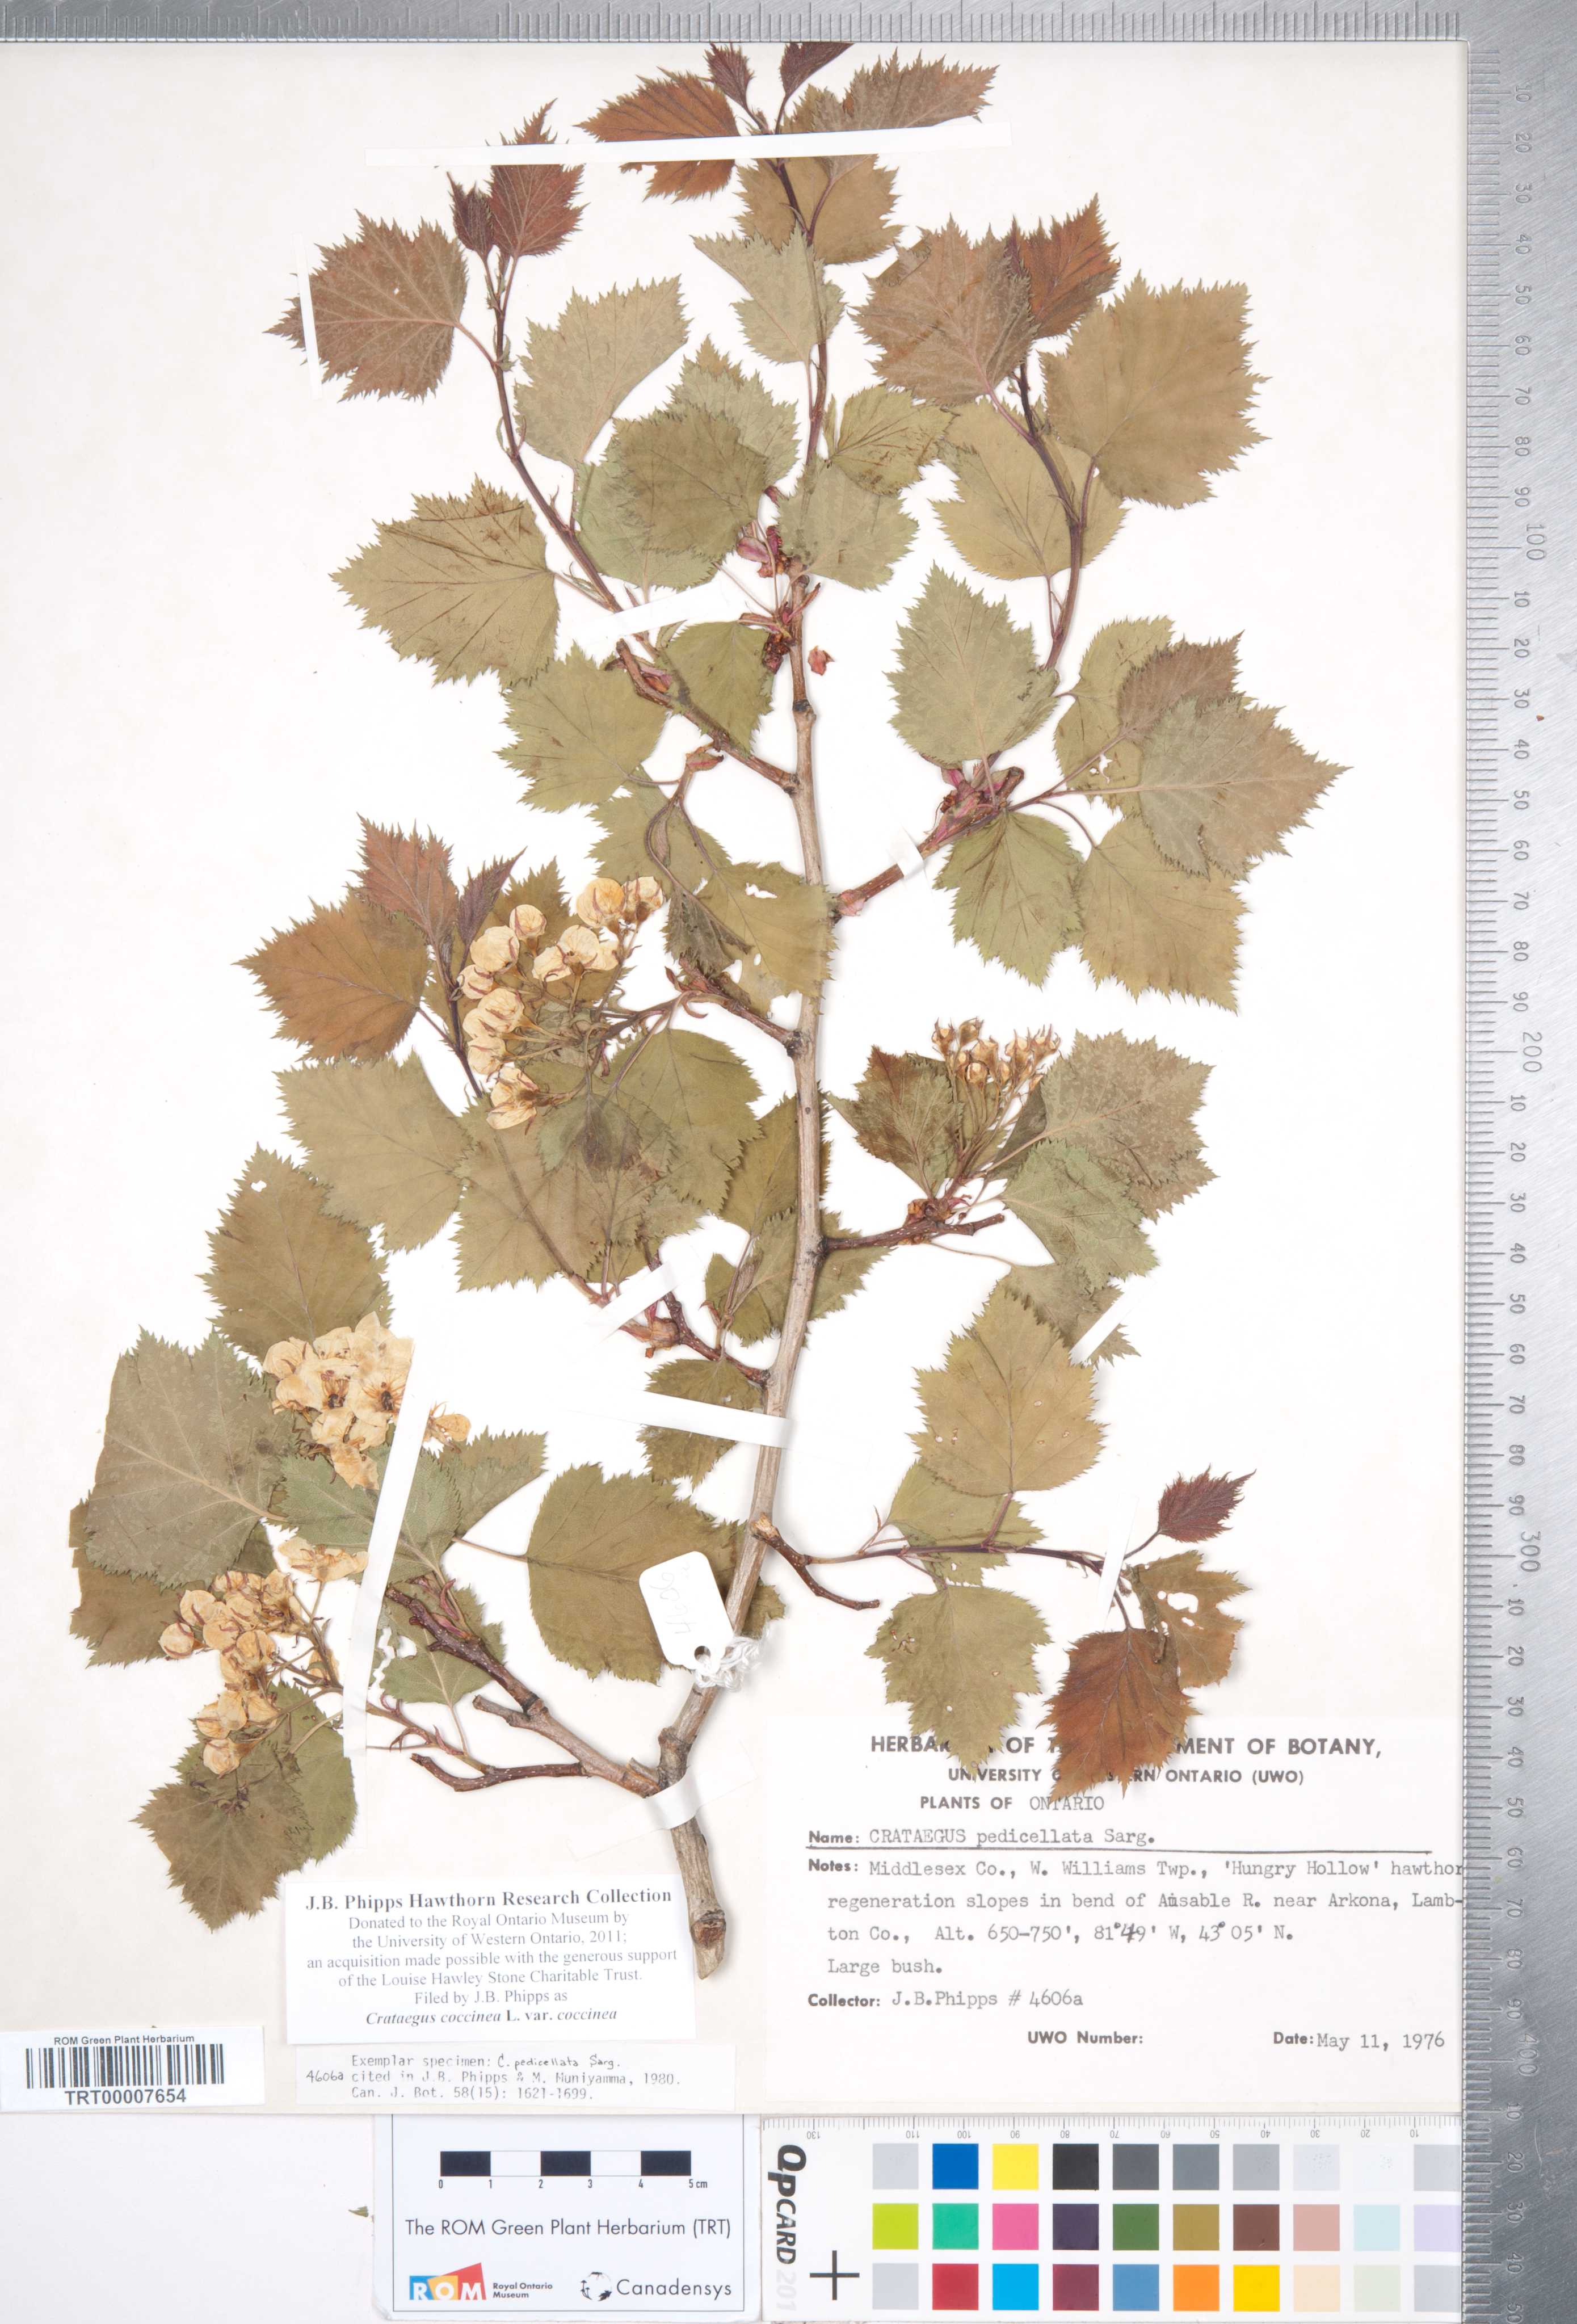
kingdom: Plantae
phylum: Tracheophyta
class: Magnoliopsida
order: Rosales
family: Rosaceae
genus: Crataegus
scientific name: Crataegus coccinea
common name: Scarlet hawthorn
